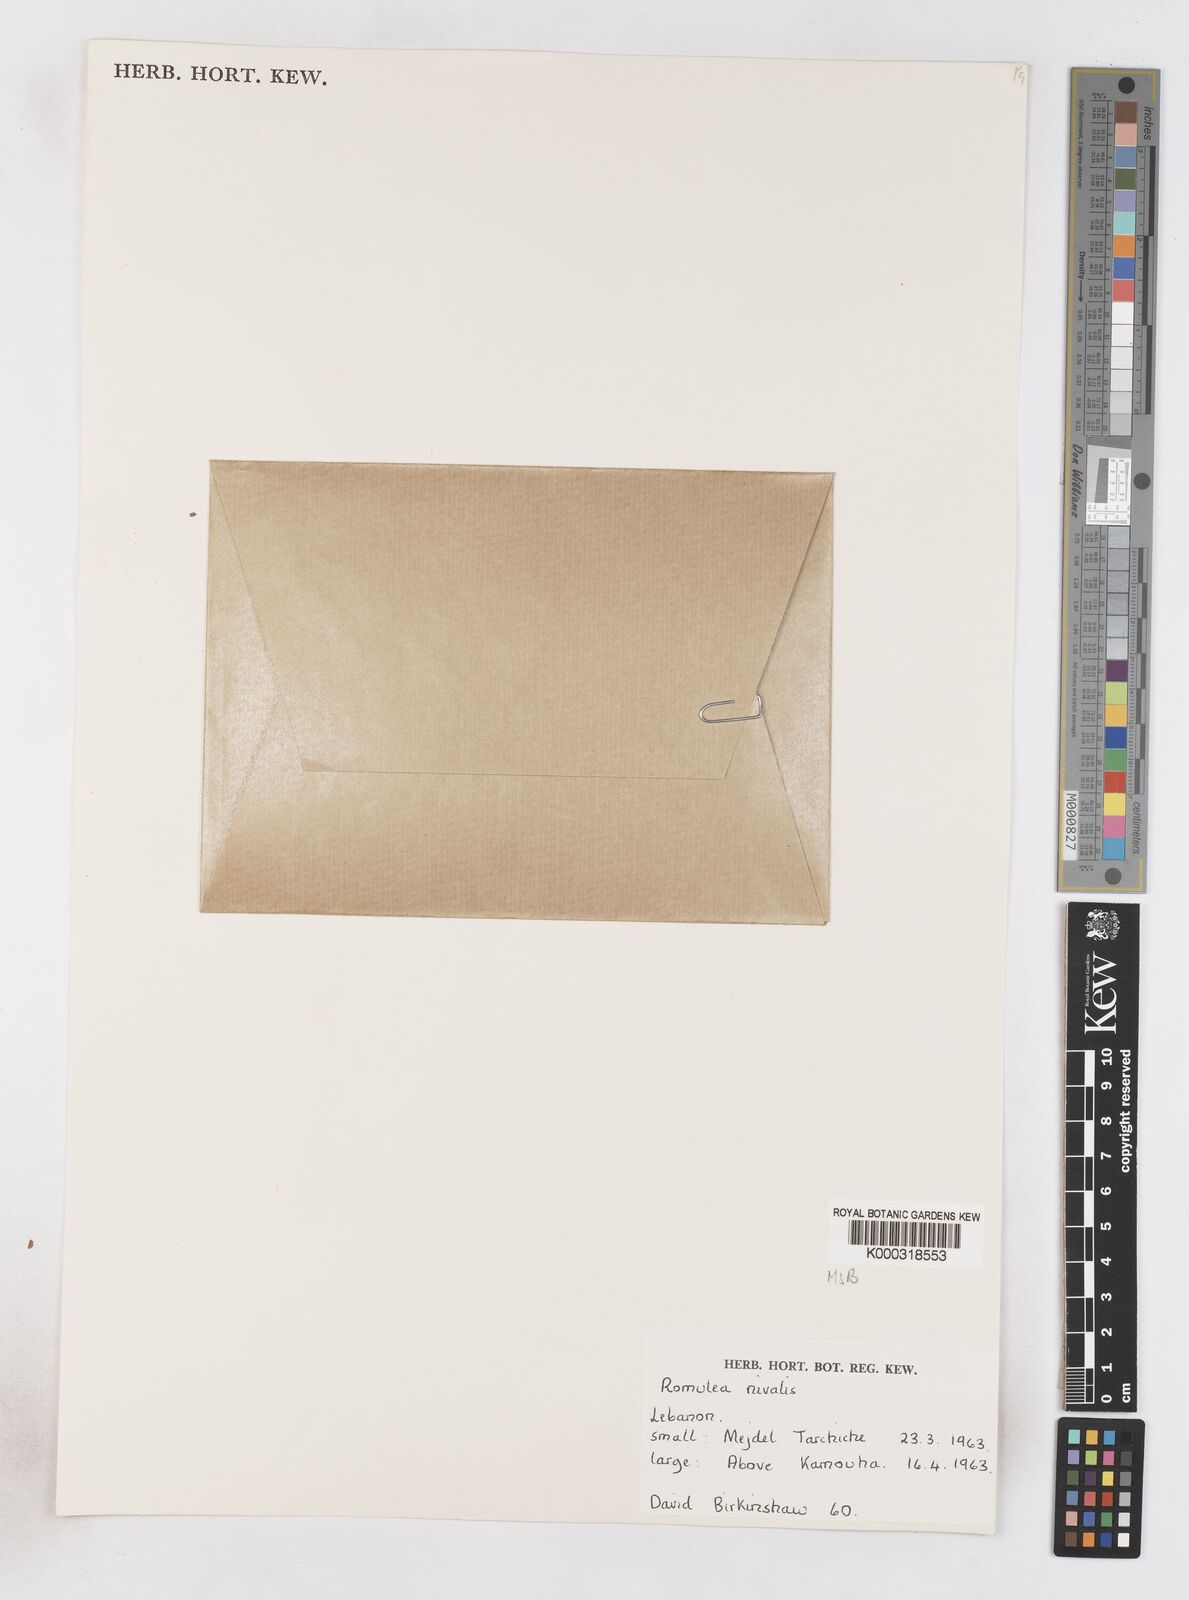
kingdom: Plantae
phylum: Tracheophyta
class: Liliopsida
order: Asparagales
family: Iridaceae
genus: Romulea
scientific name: Romulea nivalis
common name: Snow romulea
